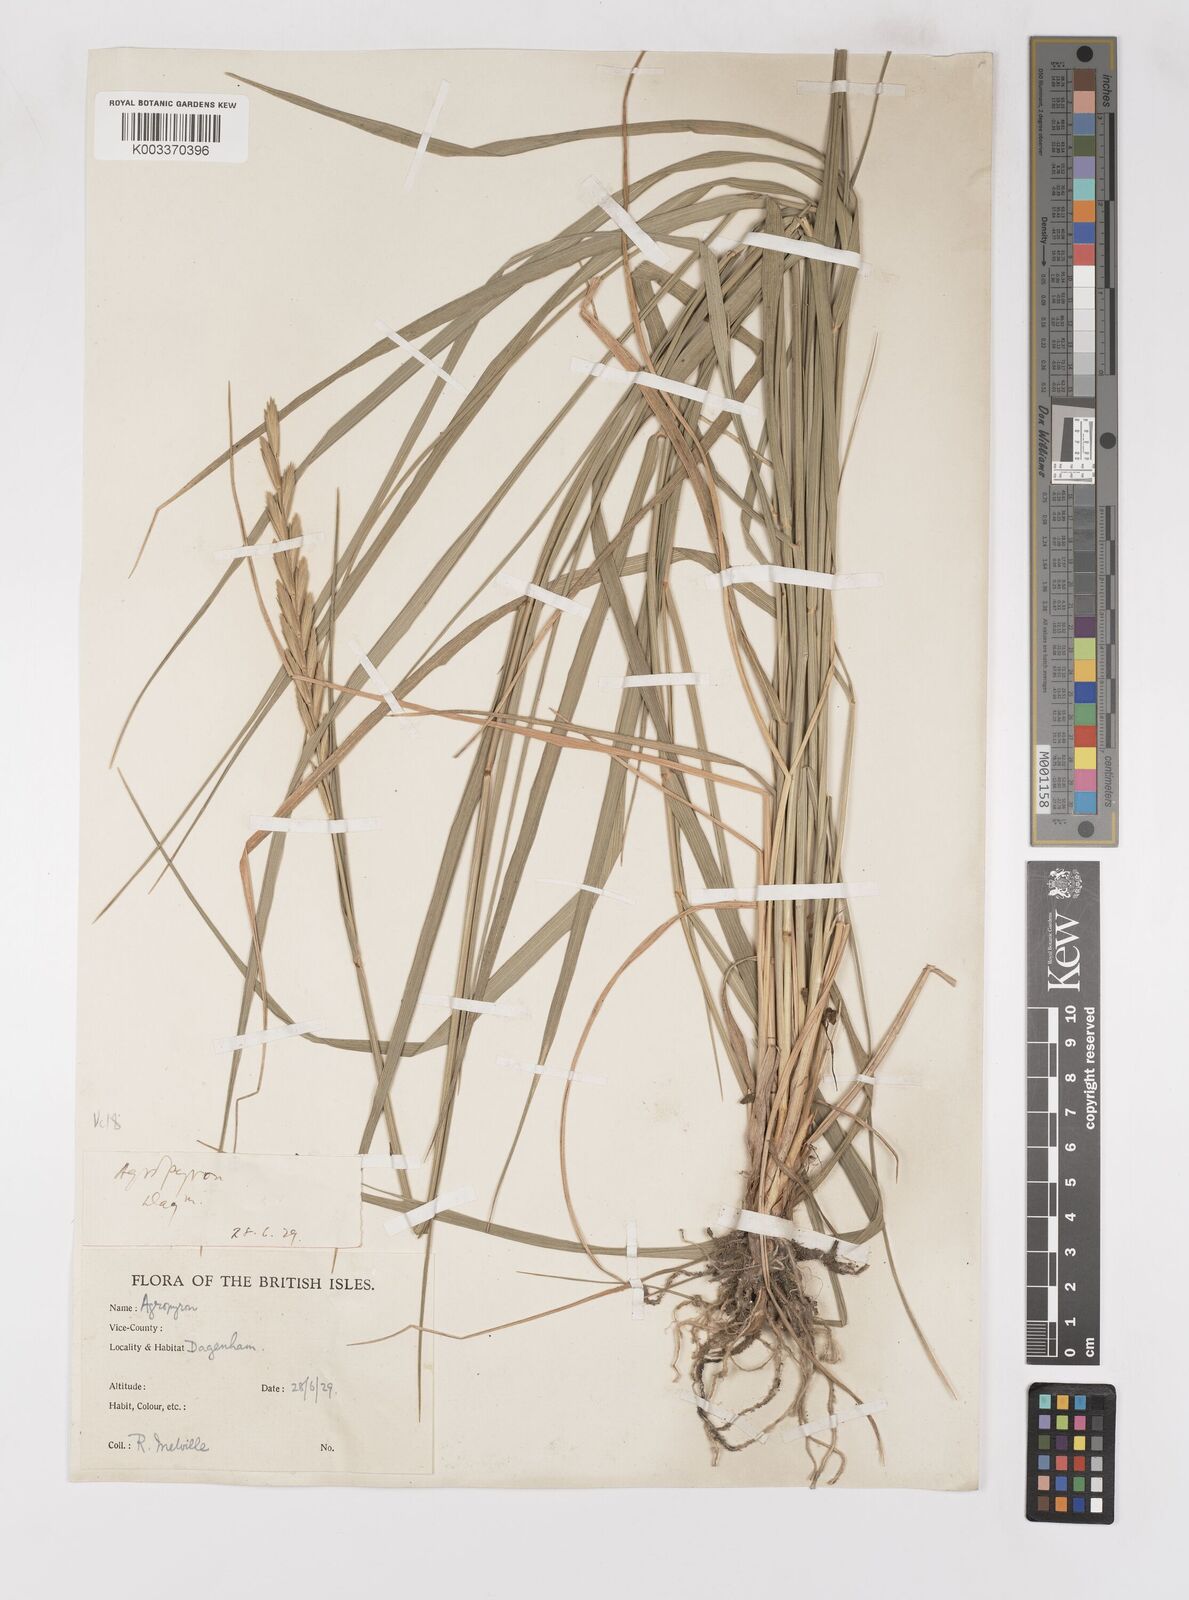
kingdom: Plantae
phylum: Tracheophyta
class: Liliopsida
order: Poales
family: Poaceae
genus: Elymus
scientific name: Elymus oliveri
